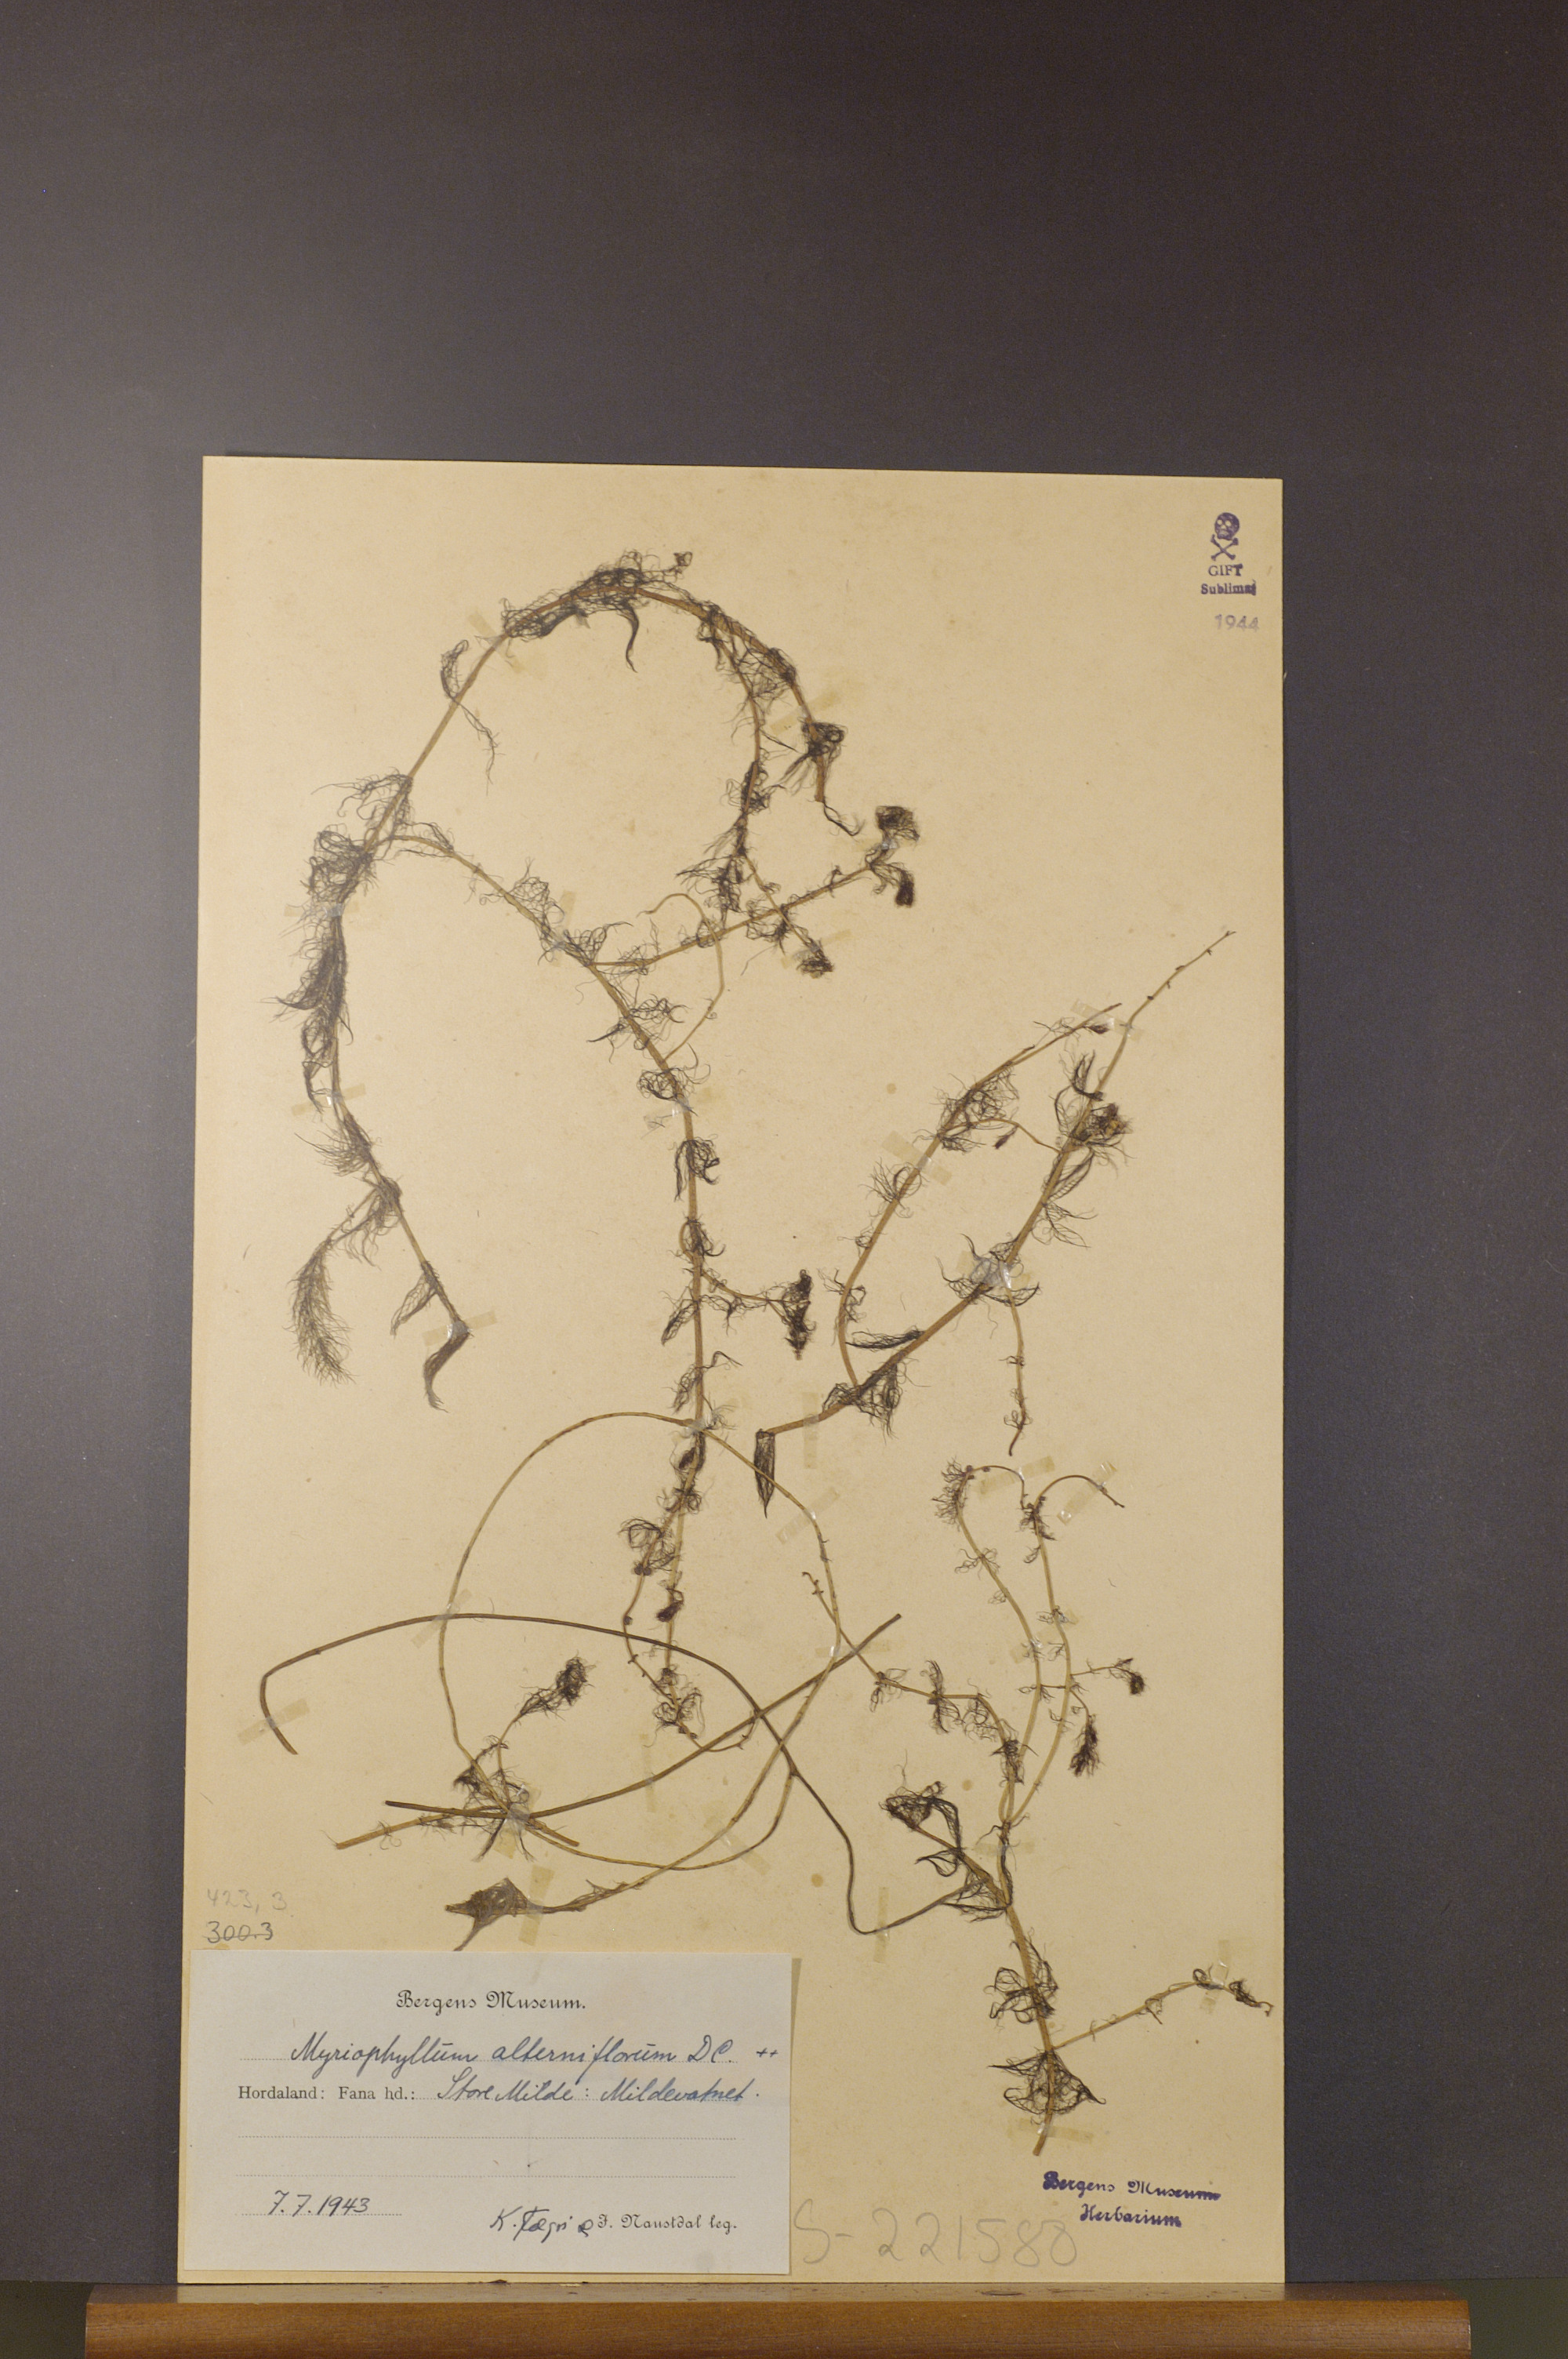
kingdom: Plantae
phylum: Tracheophyta
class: Magnoliopsida
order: Saxifragales
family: Haloragaceae
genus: Myriophyllum
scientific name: Myriophyllum alterniflorum
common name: Alternate water-milfoil
